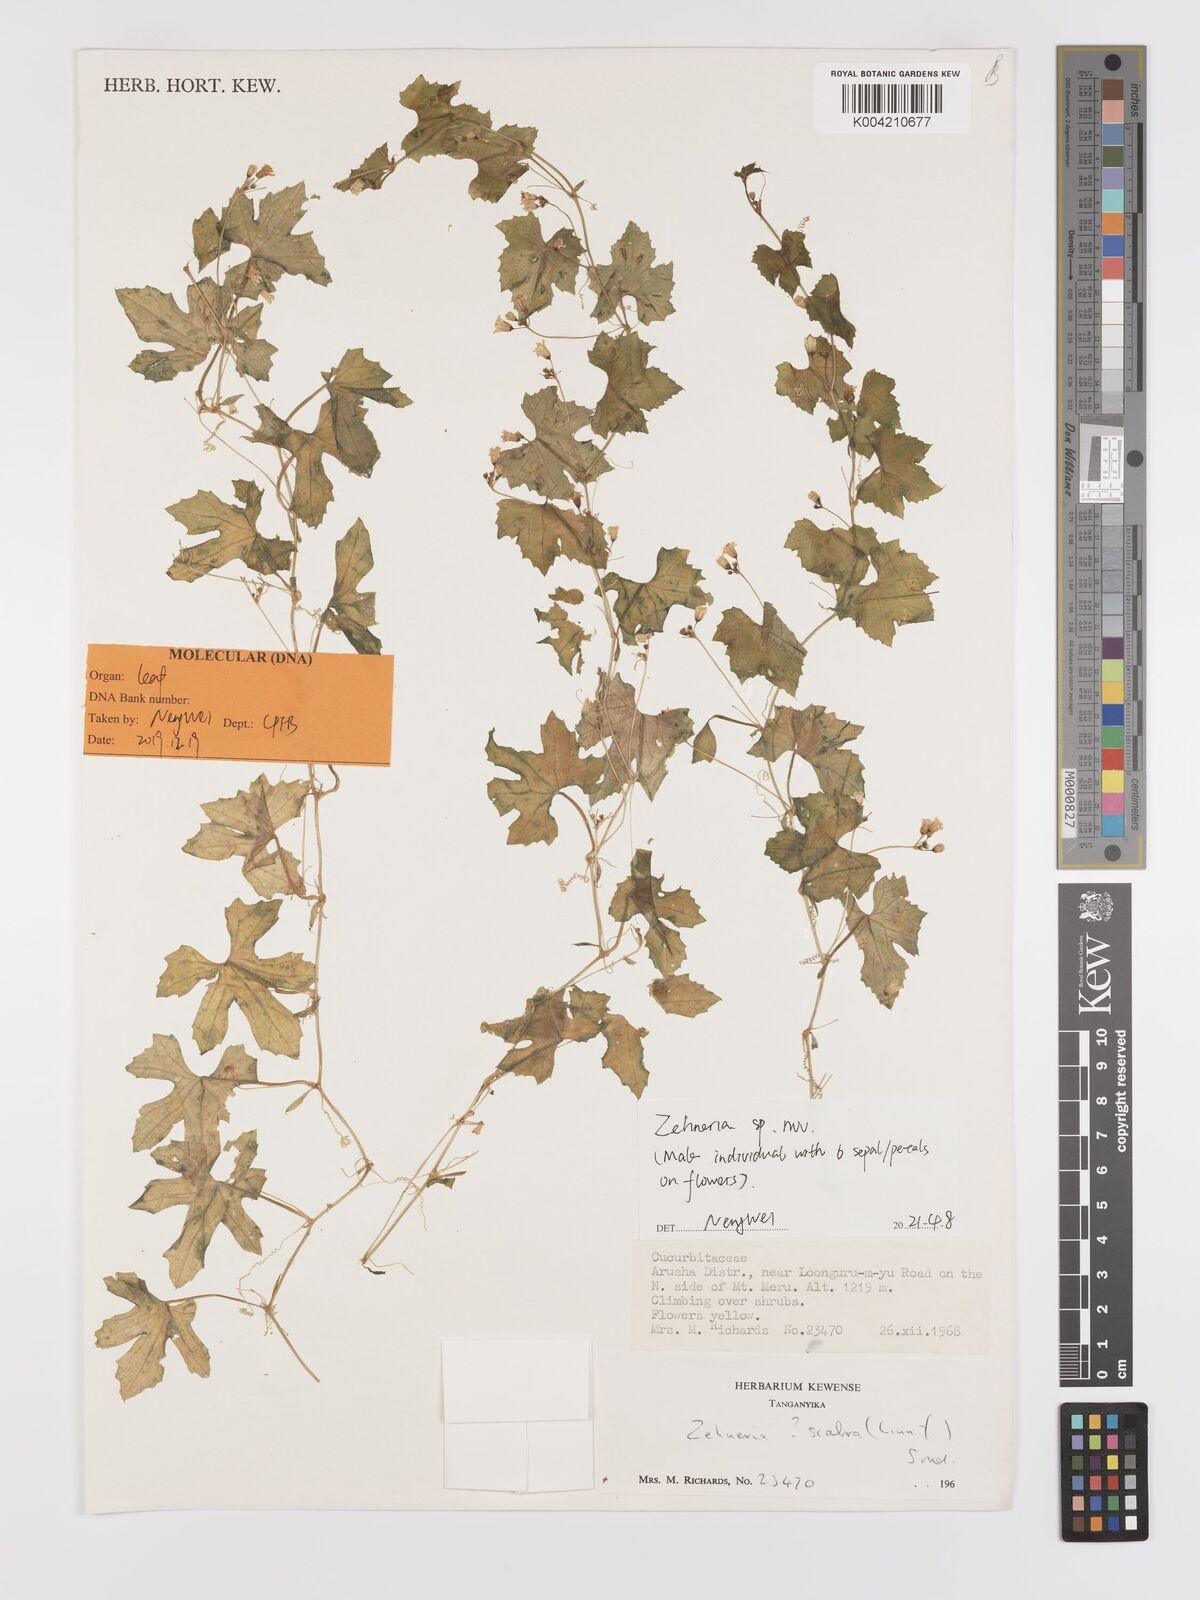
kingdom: Plantae
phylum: Tracheophyta
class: Magnoliopsida
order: Cucurbitales
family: Cucurbitaceae
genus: Zehneria
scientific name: Zehneria scabra
